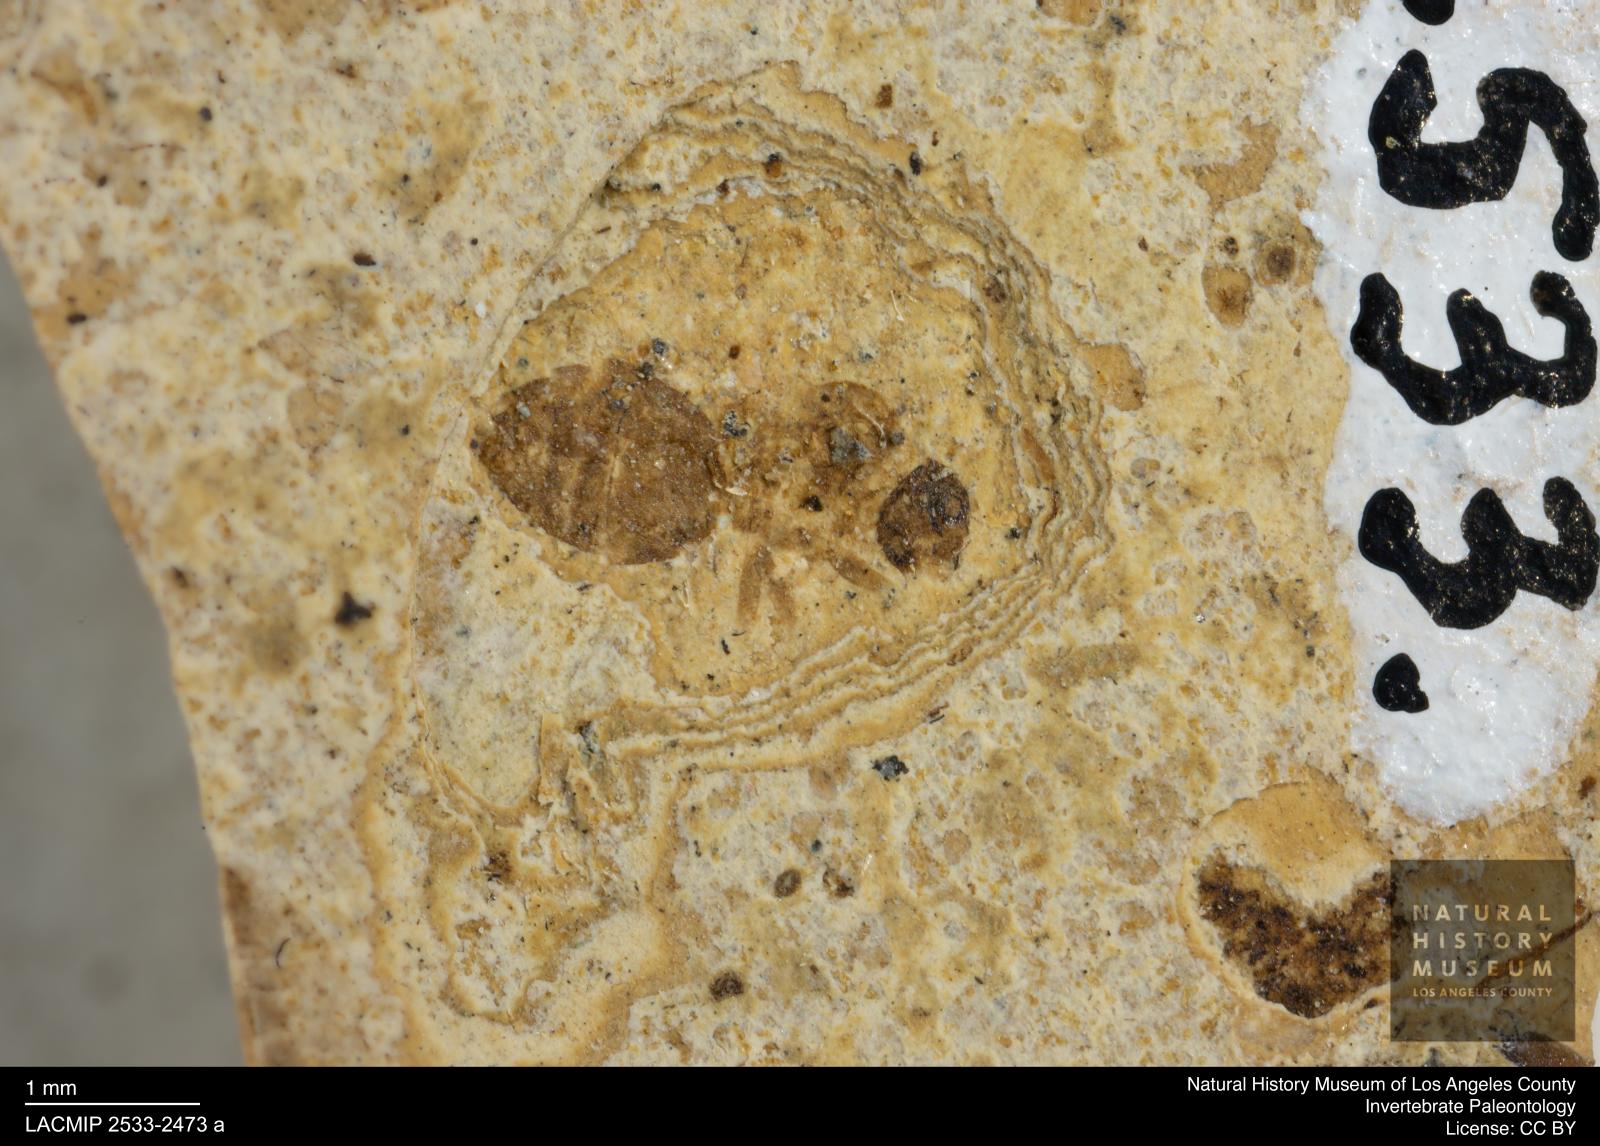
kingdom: Animalia
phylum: Arthropoda
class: Insecta
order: Hymenoptera
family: Formicidae
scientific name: Formicidae
